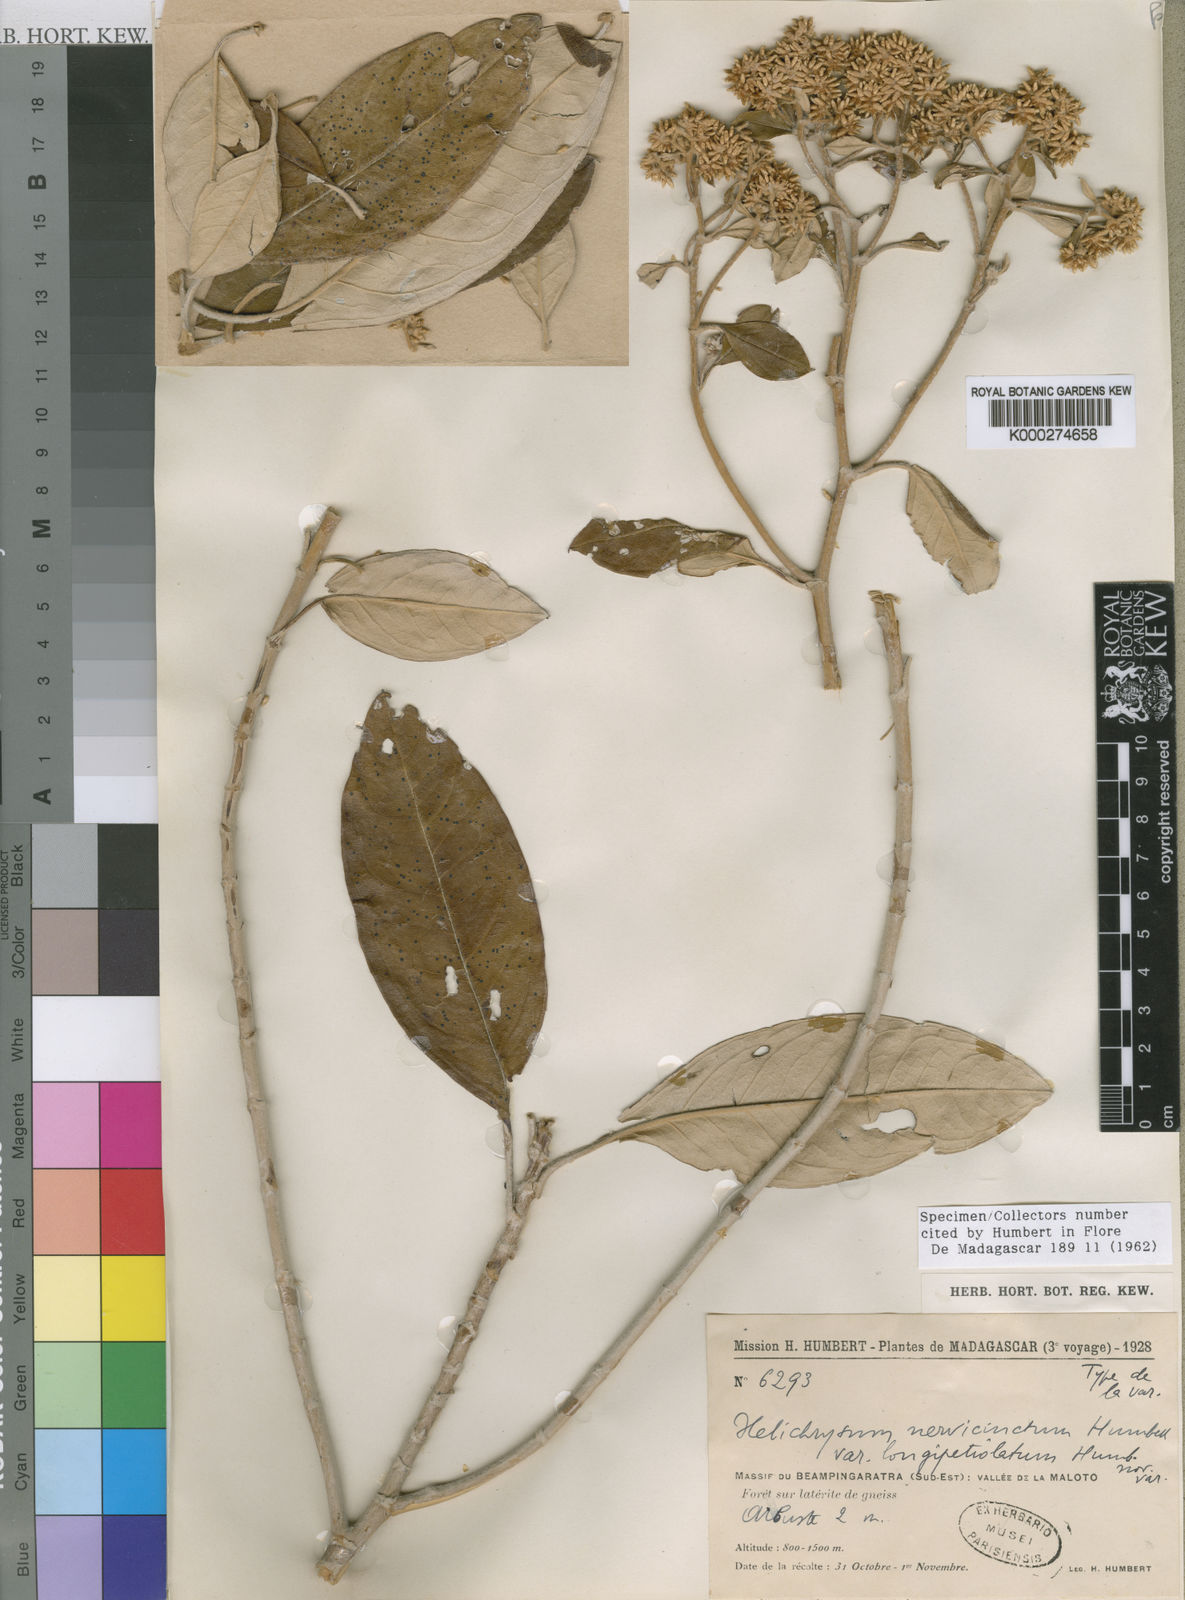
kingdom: Plantae
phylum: Tracheophyta
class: Magnoliopsida
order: Asterales
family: Asteraceae
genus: Helichrysum
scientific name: Helichrysum nervicinctum
